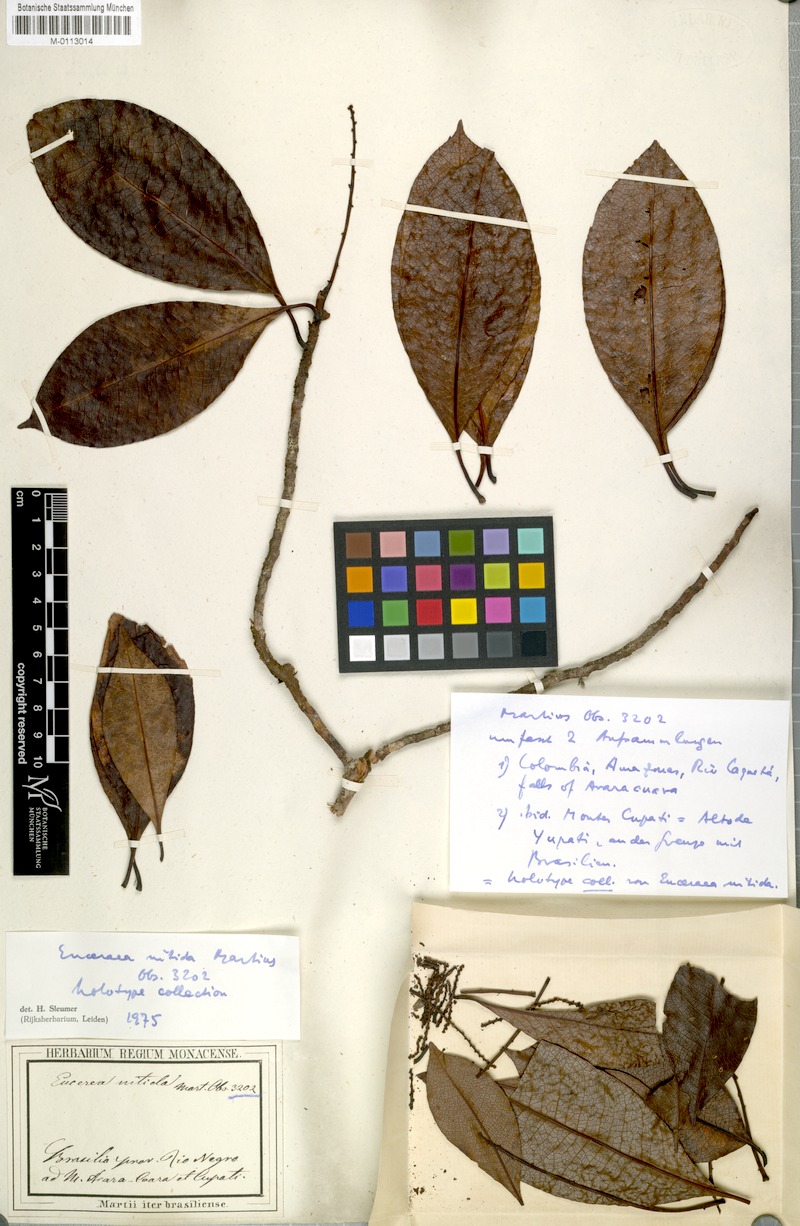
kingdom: Plantae
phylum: Tracheophyta
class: Magnoliopsida
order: Malpighiales
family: Salicaceae
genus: Casearia
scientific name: Casearia euceraea
